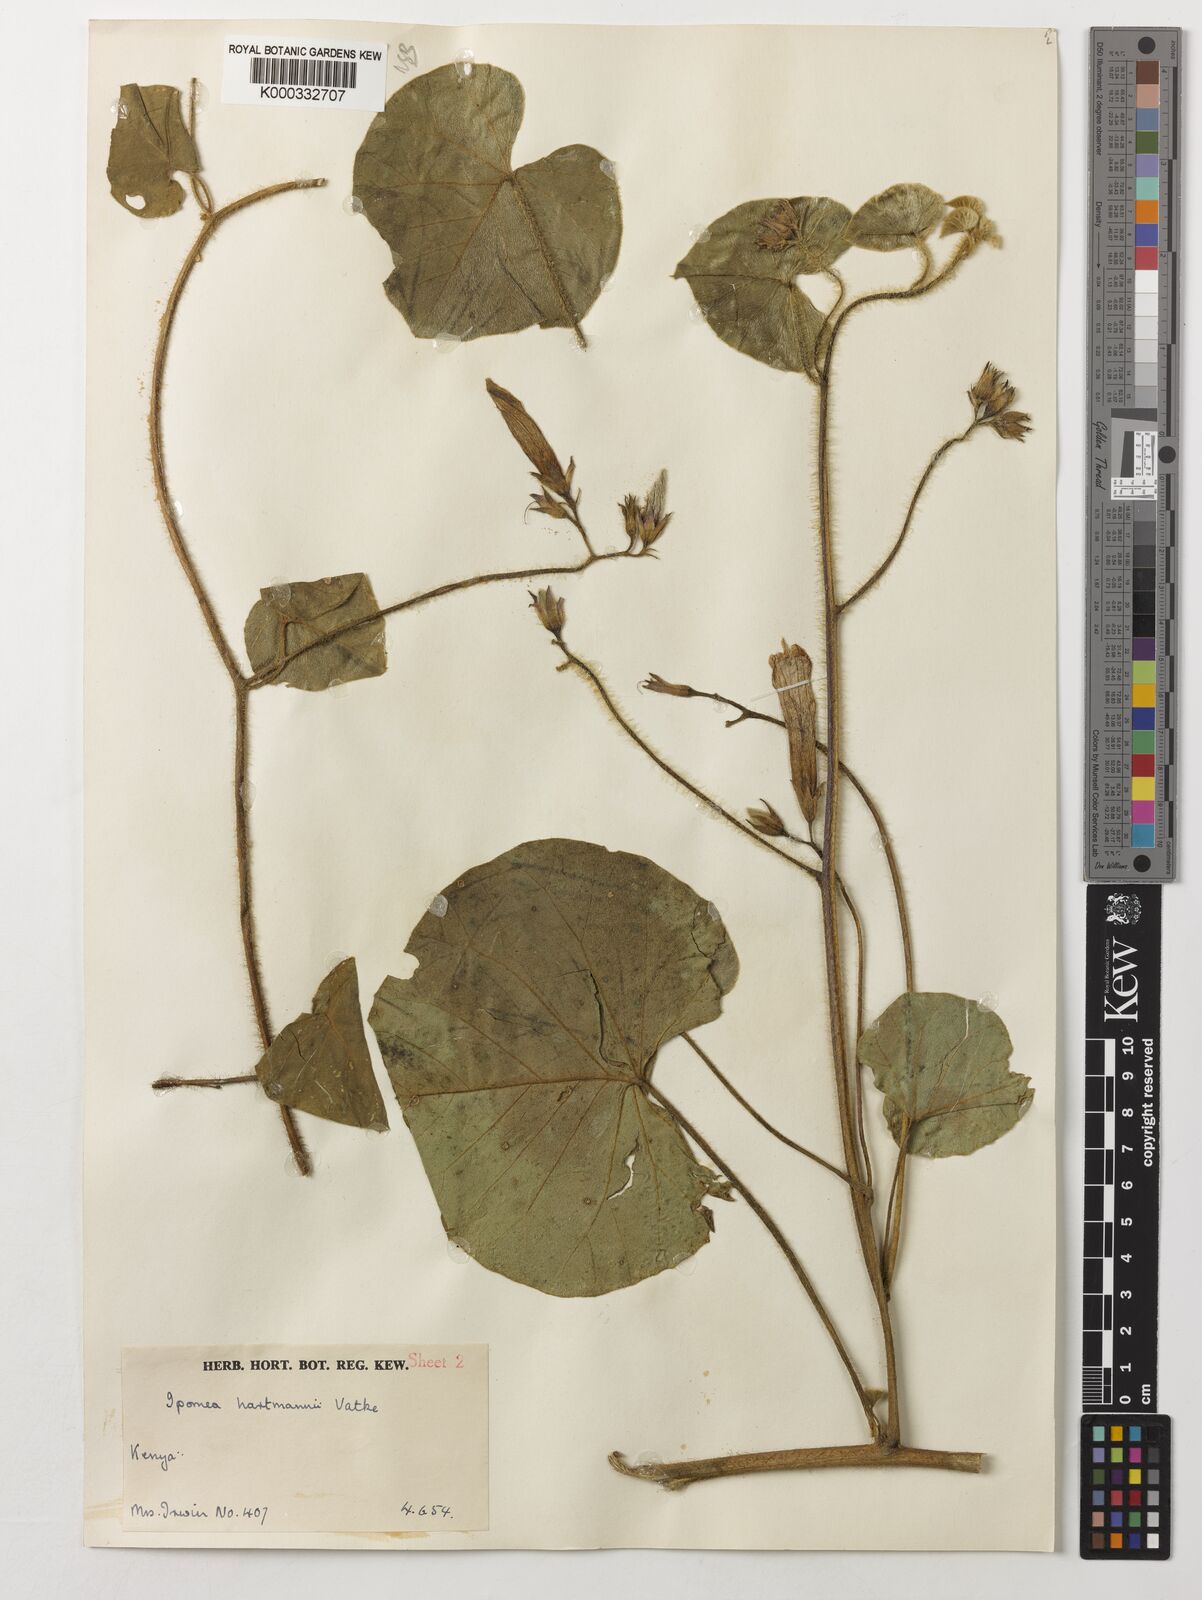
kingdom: Plantae
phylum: Tracheophyta
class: Magnoliopsida
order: Solanales
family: Convolvulaceae
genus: Ipomoea
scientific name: Ipomoea hartmannii
